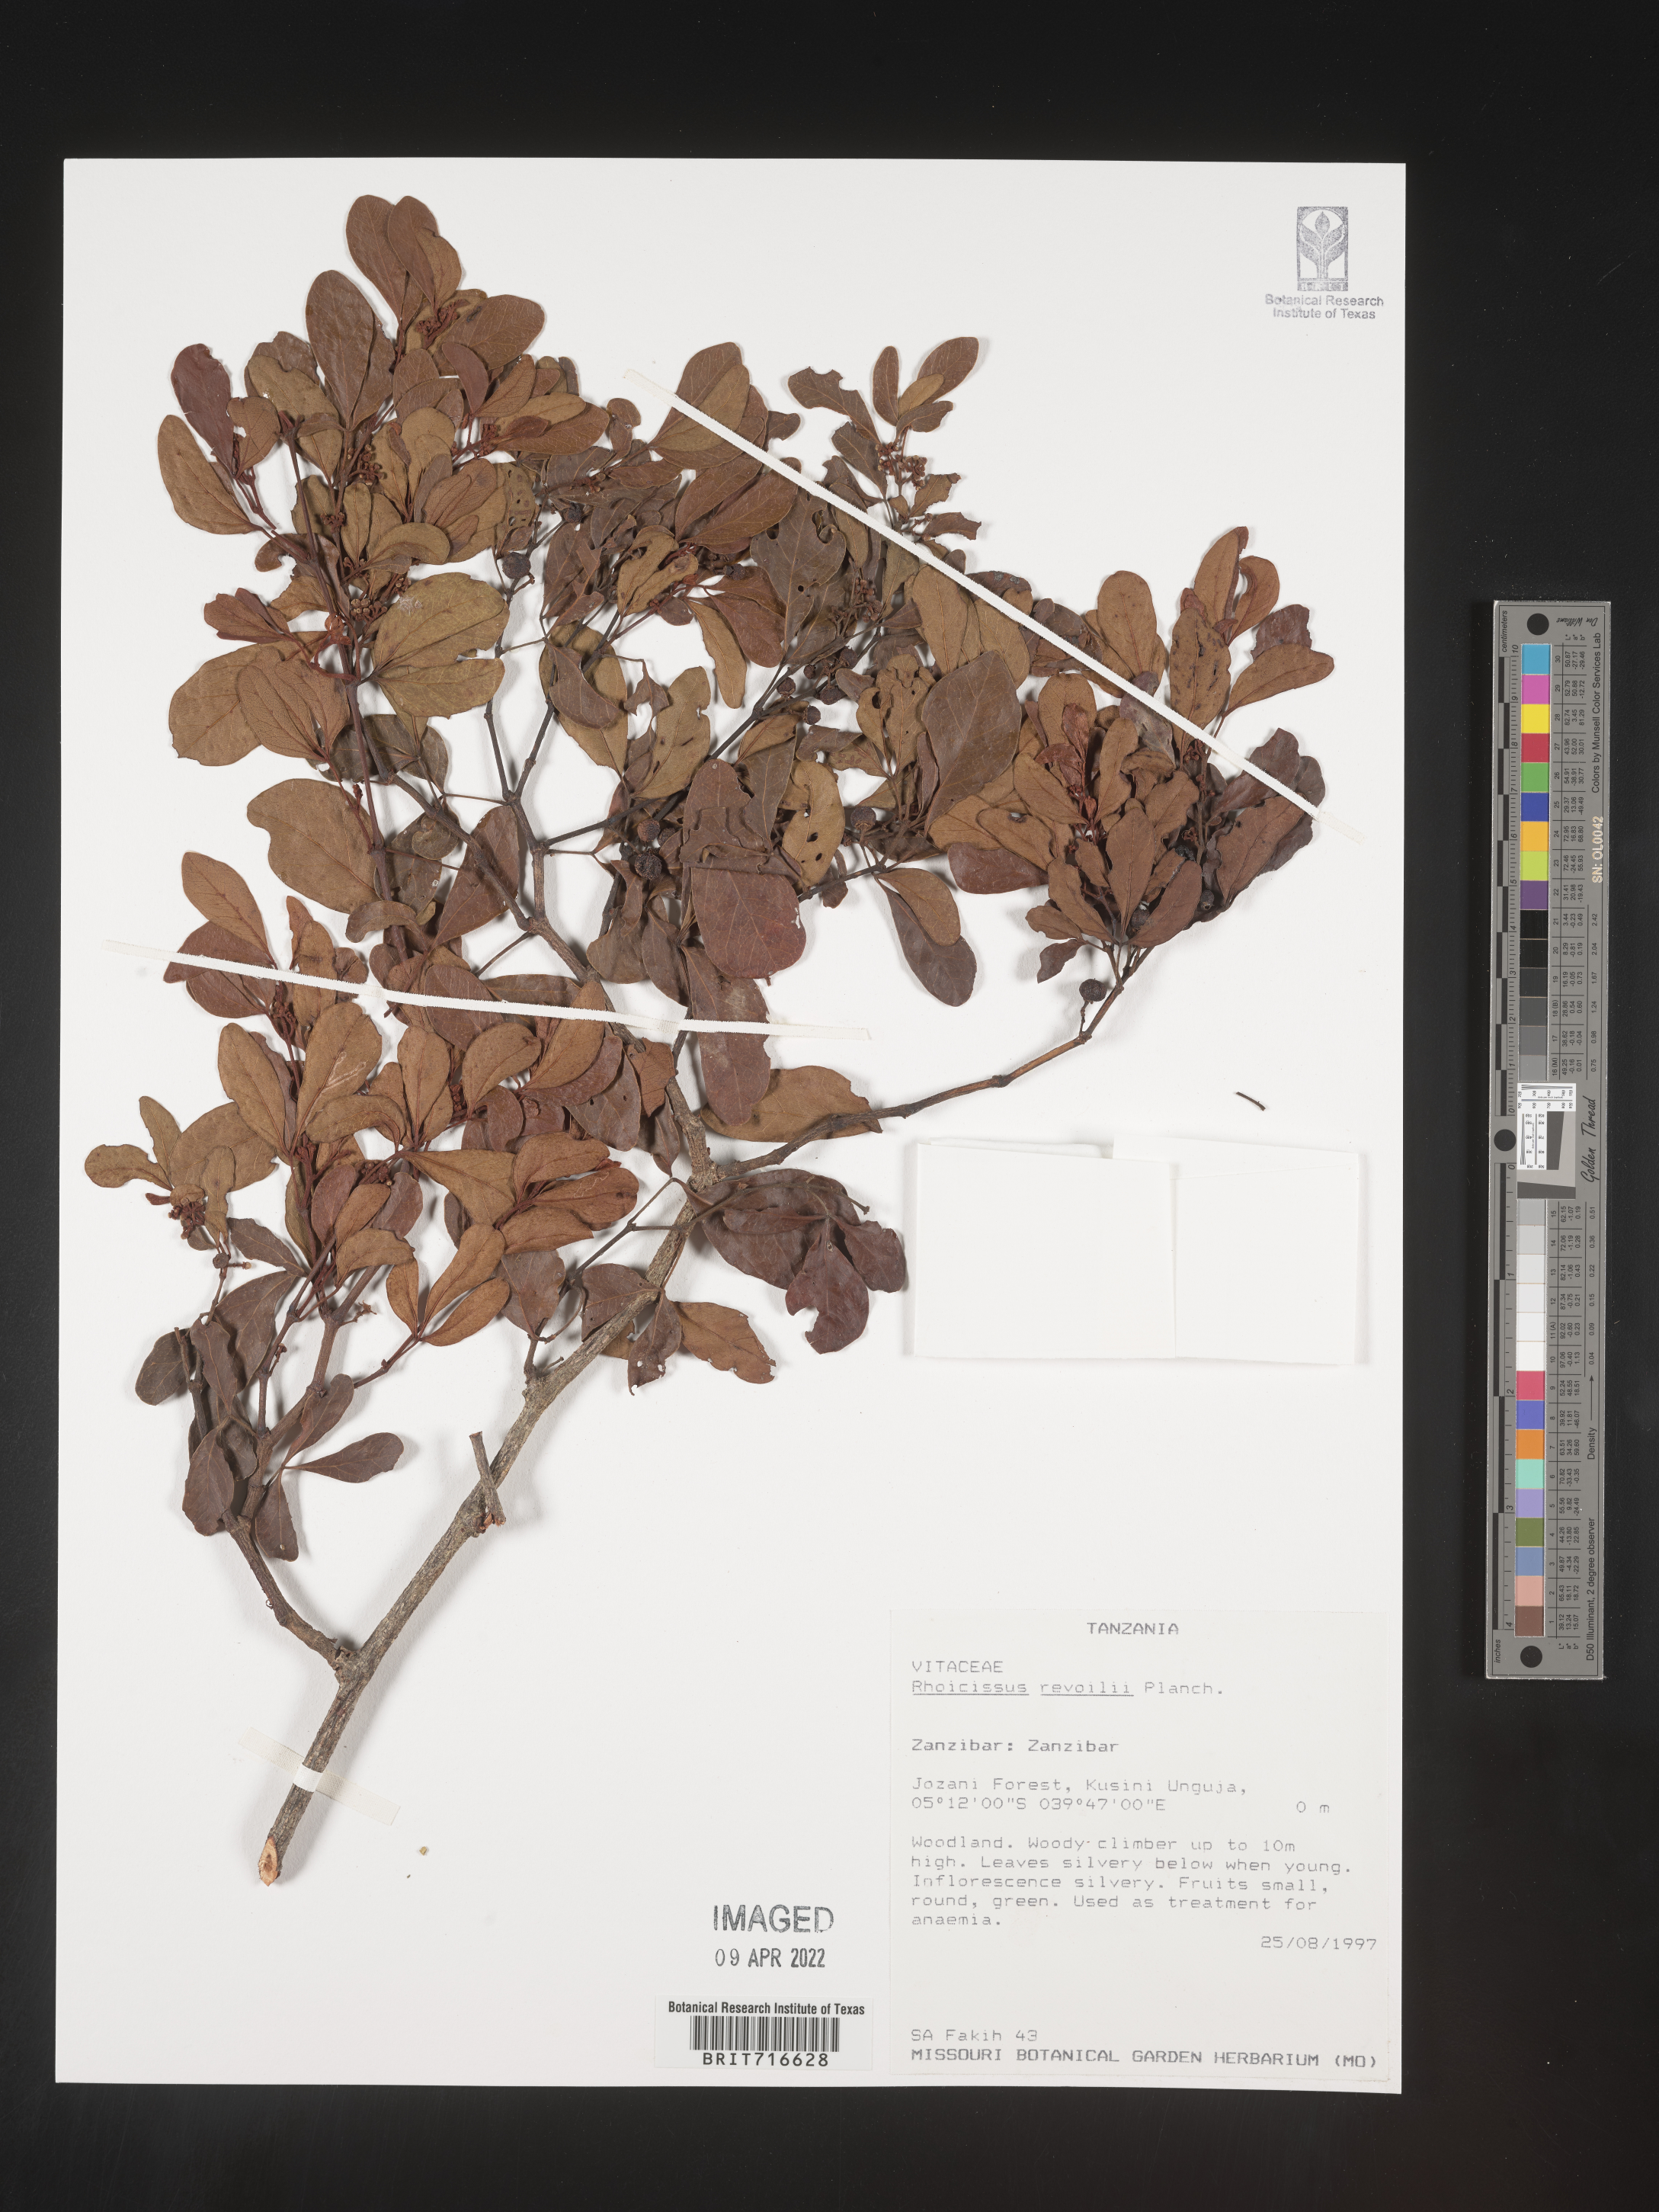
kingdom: Plantae
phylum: Tracheophyta
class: Magnoliopsida
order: Vitales
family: Vitaceae
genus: Rhoicissus
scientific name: Rhoicissus
